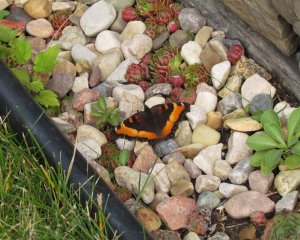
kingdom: Animalia
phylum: Arthropoda
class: Insecta
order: Lepidoptera
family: Nymphalidae
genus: Aglais
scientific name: Aglais milberti
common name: Milbert's Tortoiseshell
